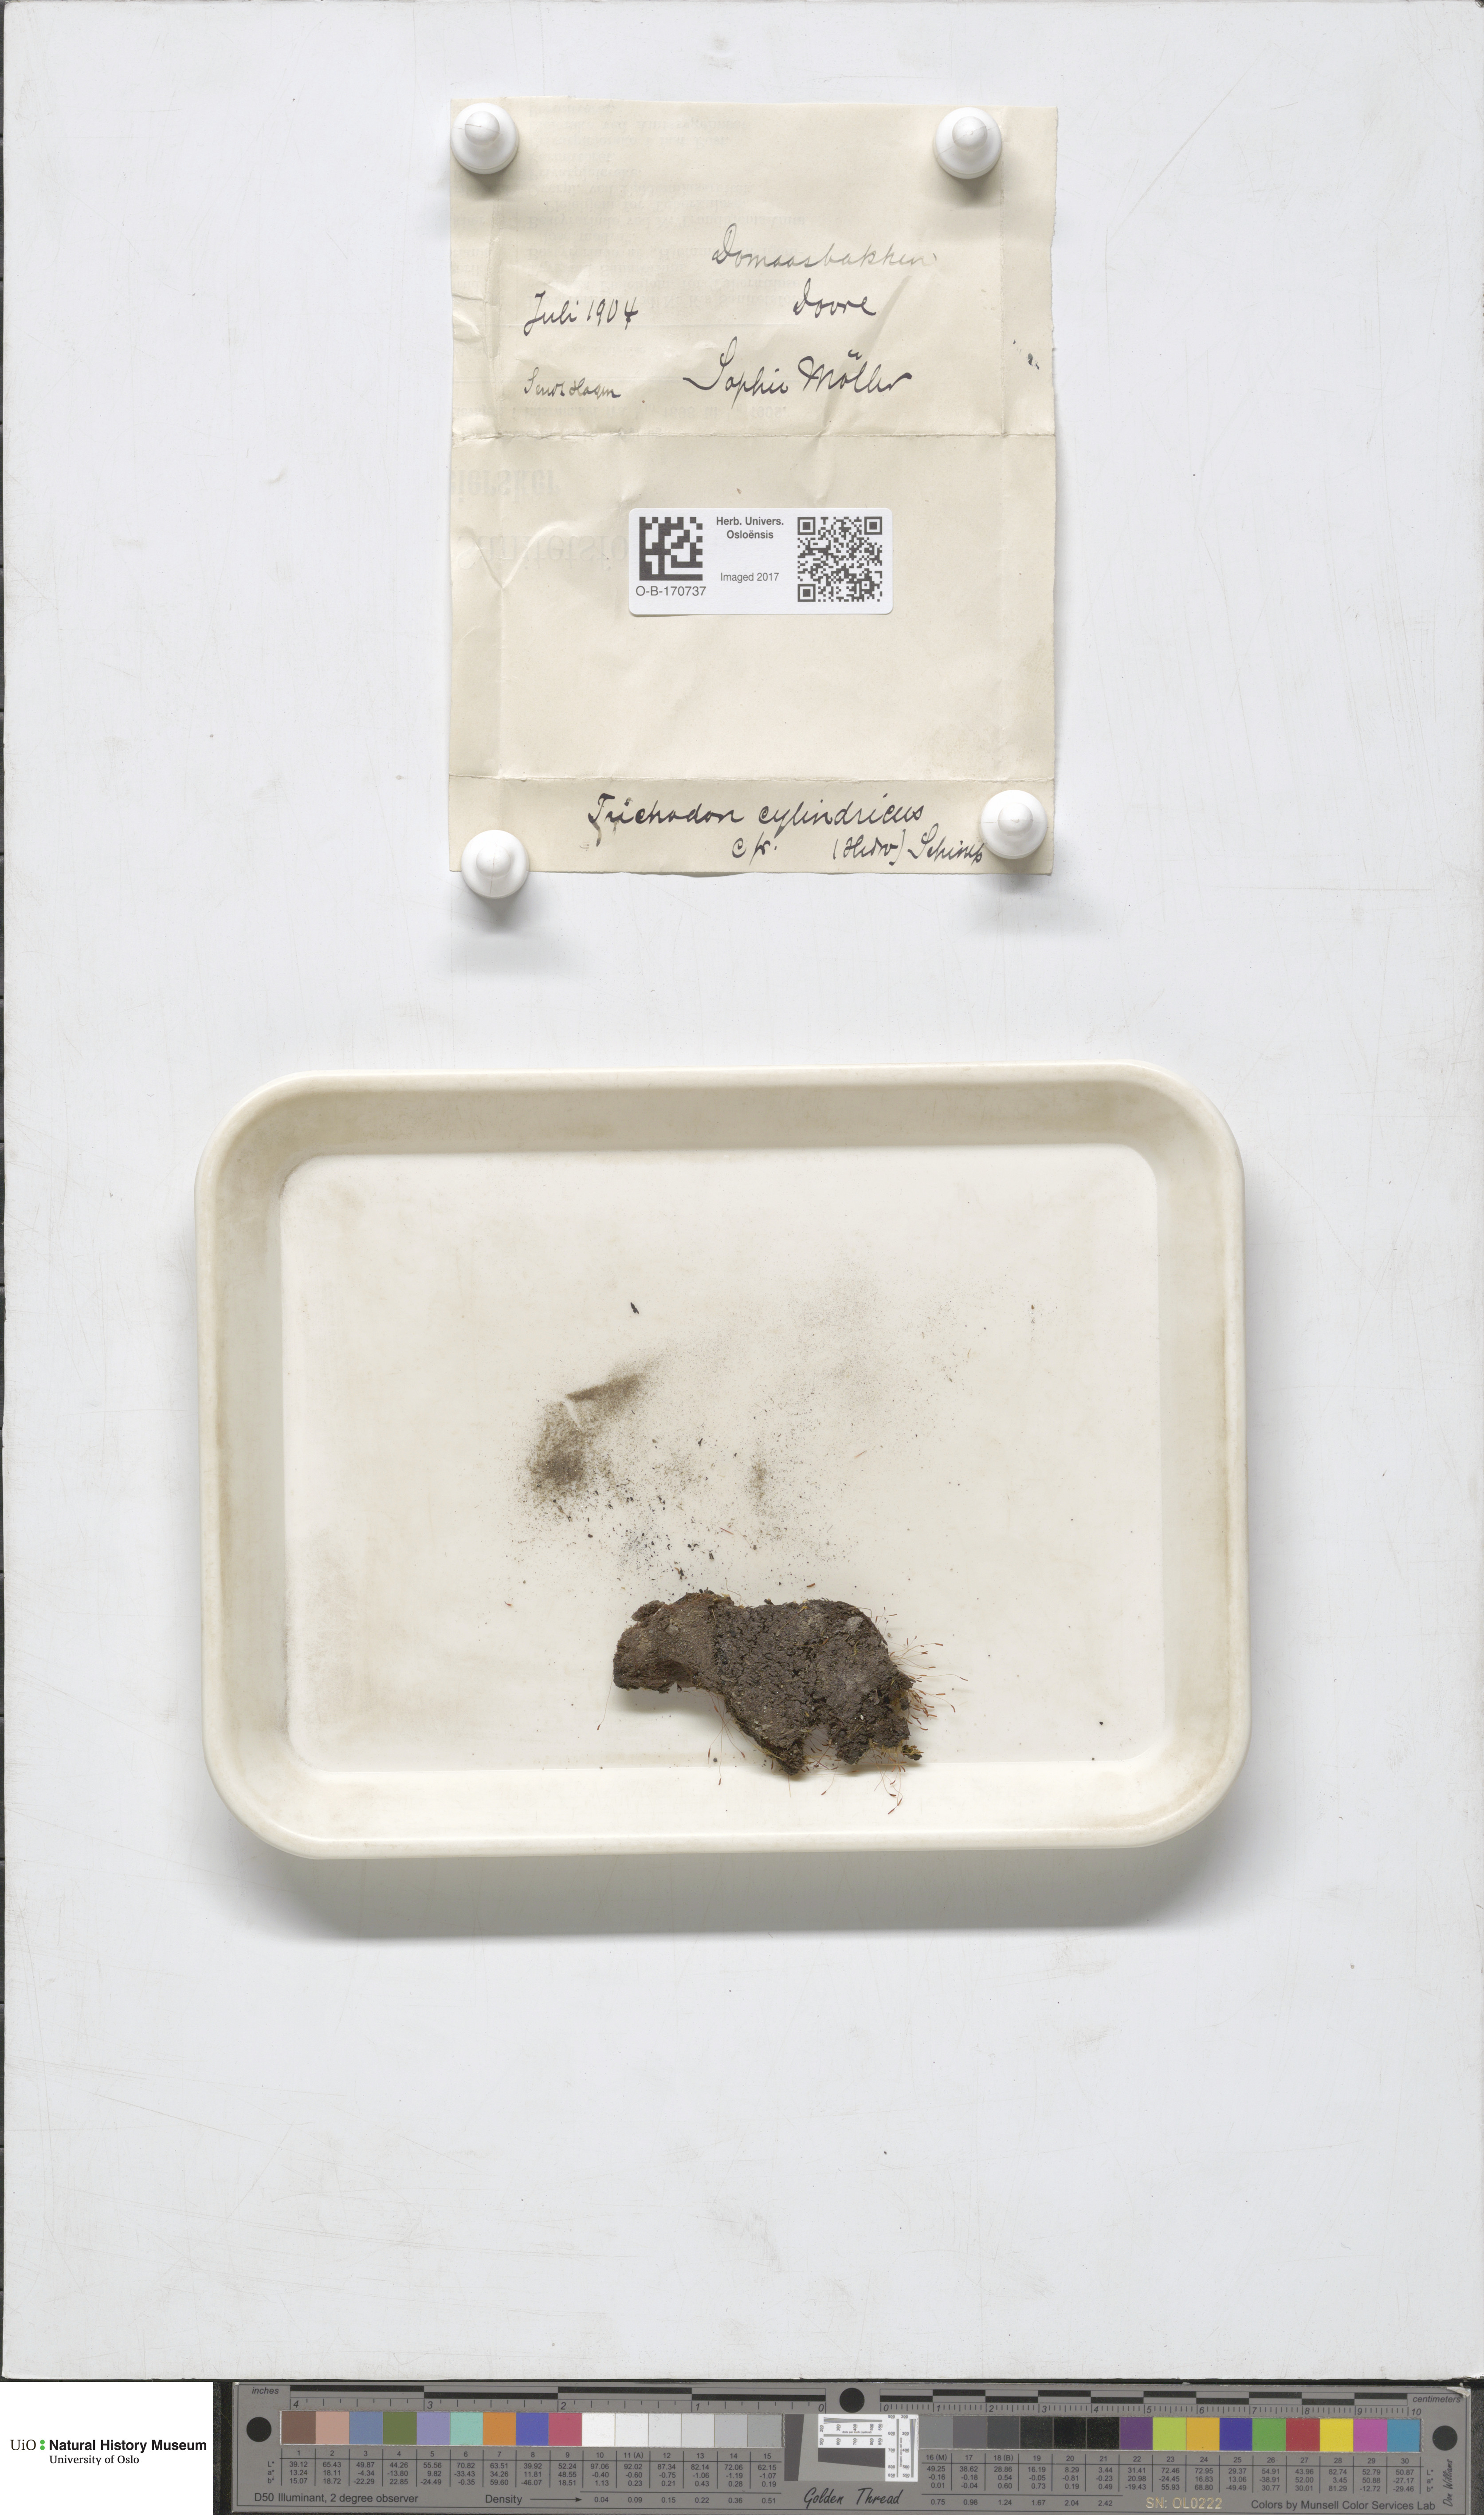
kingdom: Plantae
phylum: Bryophyta
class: Bryopsida
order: Dicranales
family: Ditrichaceae
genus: Trichodon
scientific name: Trichodon cylindricus
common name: Cylindric hairy-teeth moss
